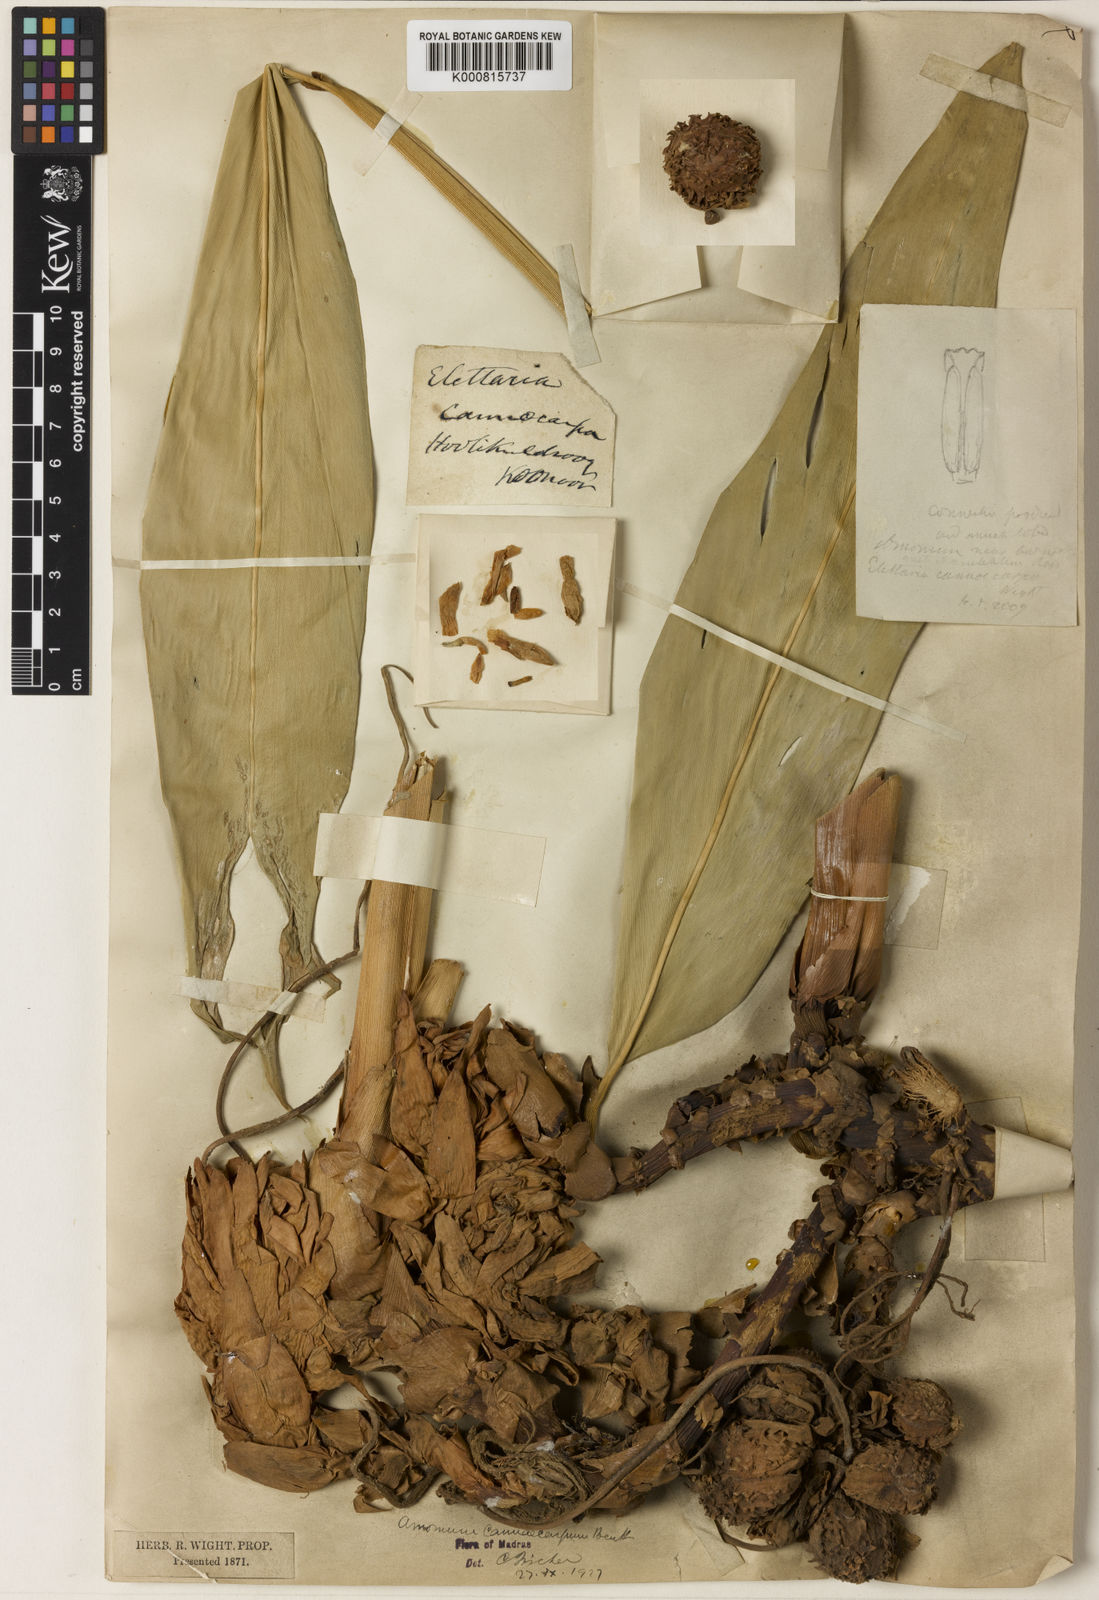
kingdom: Plantae
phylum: Tracheophyta
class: Liliopsida
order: Zingiberales
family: Zingiberaceae
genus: Meistera
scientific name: Meistera cannicarpa
